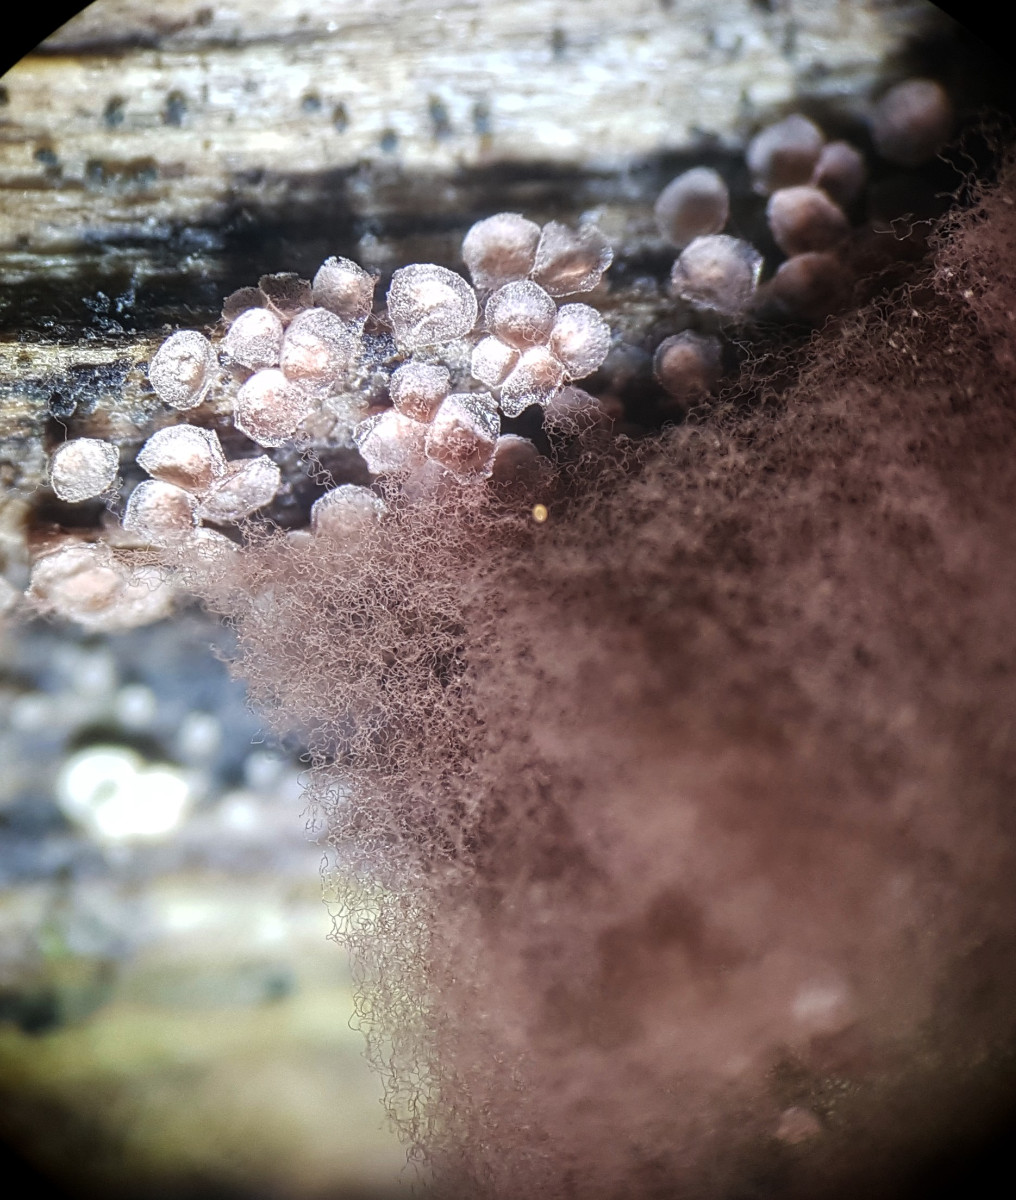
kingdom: Protozoa
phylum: Mycetozoa
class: Myxomycetes
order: Trichiales
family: Arcyriaceae
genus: Arcyria
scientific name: Arcyria incarnata
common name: rosa skålsvøb
